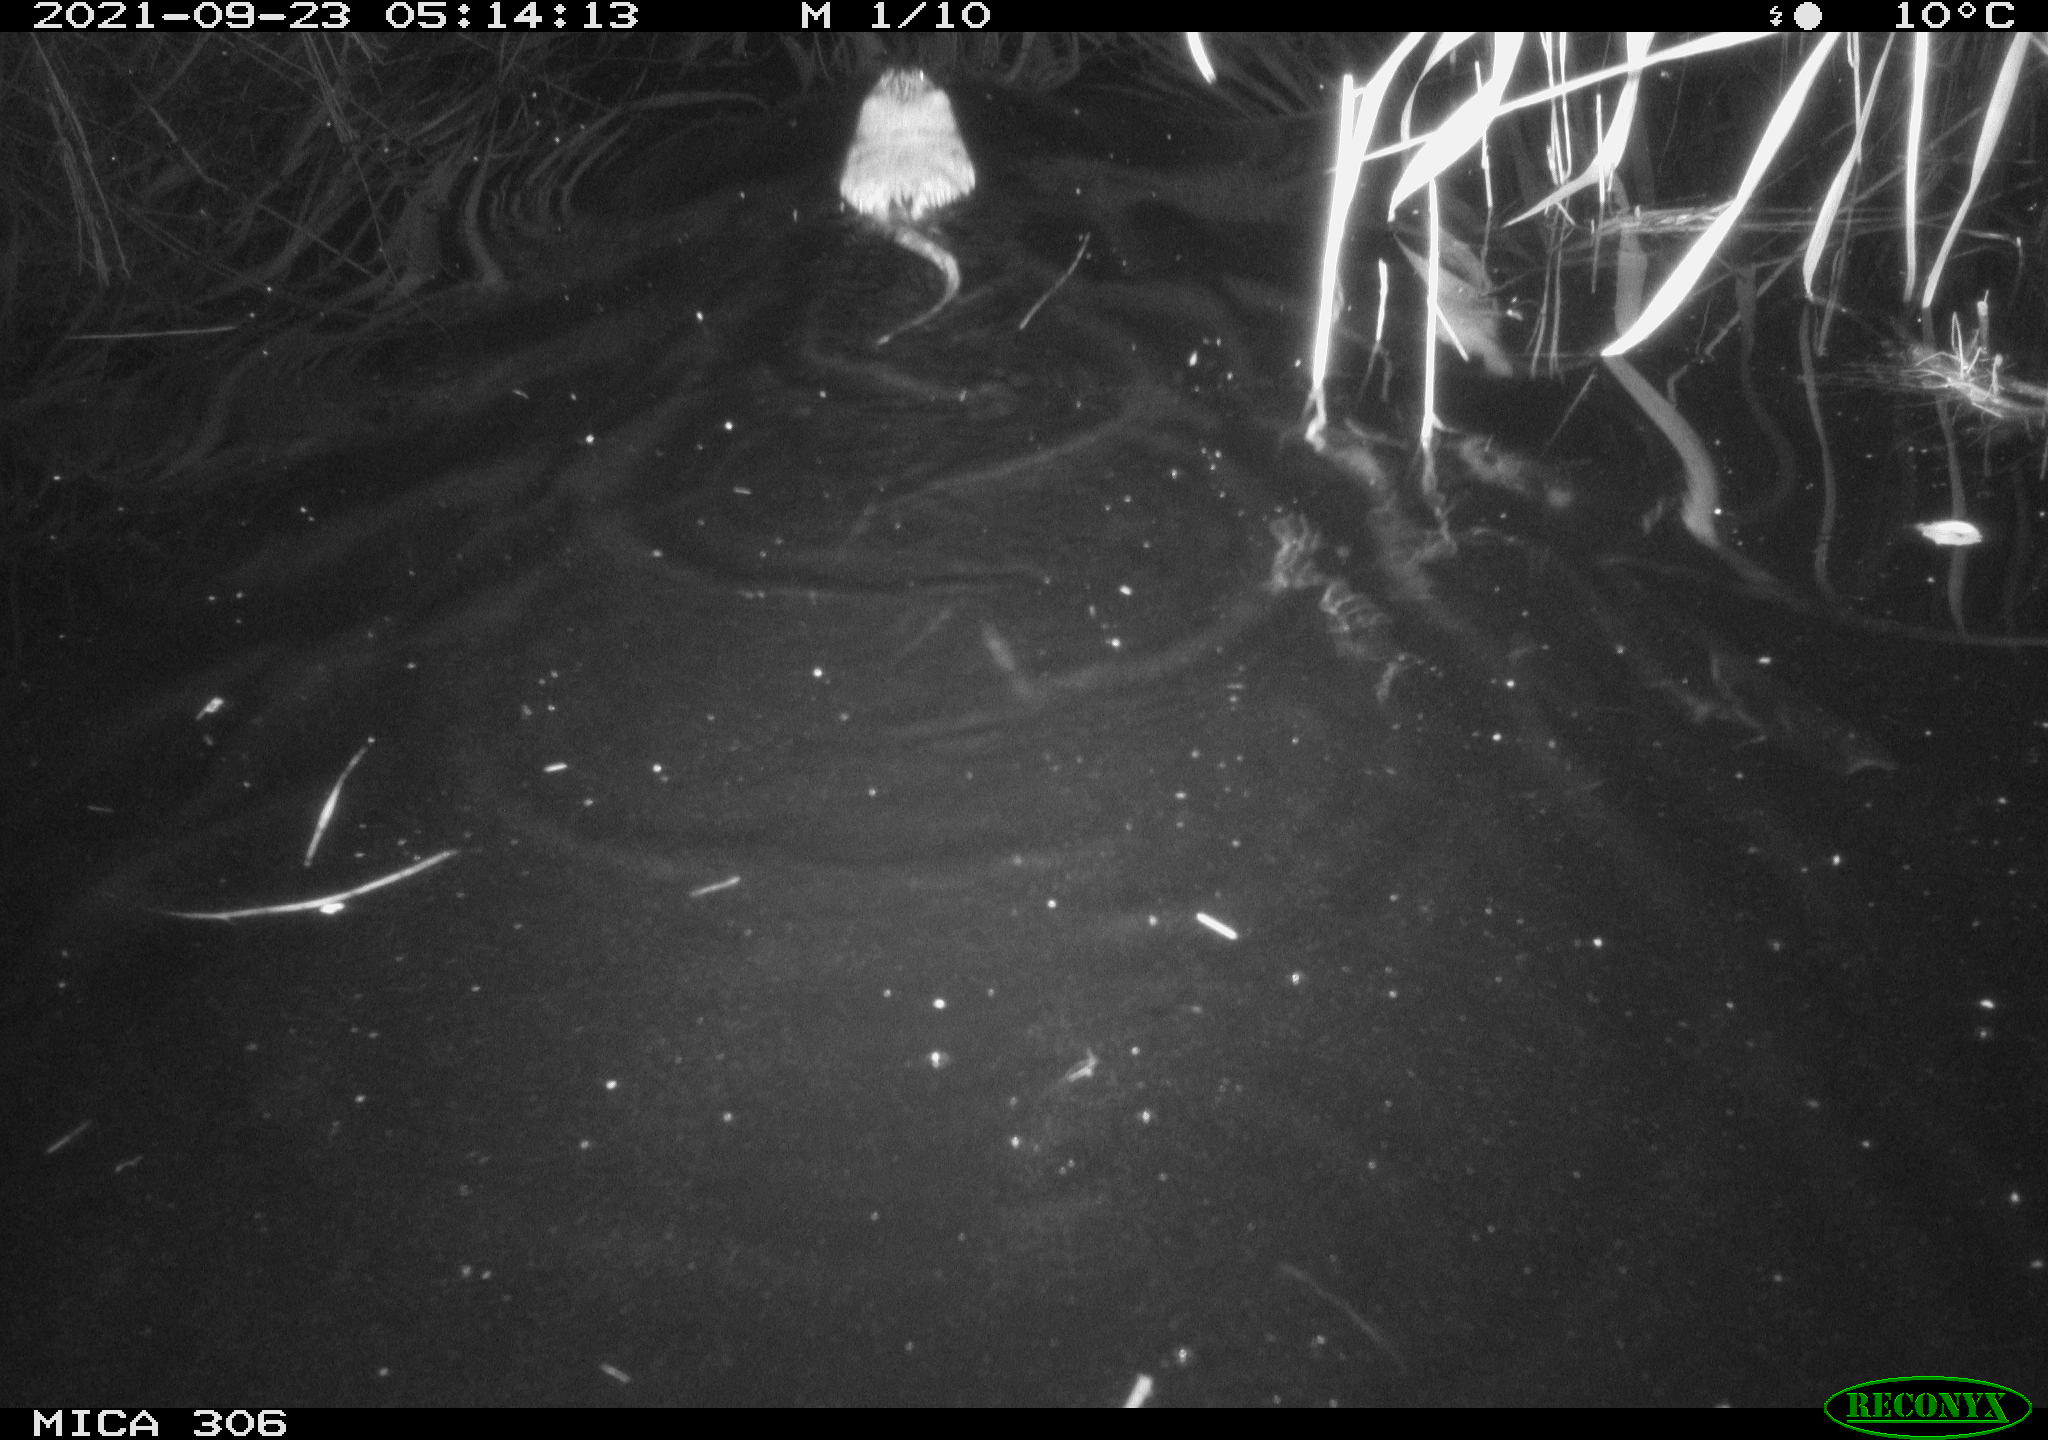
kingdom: Animalia
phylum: Chordata
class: Mammalia
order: Rodentia
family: Cricetidae
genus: Ondatra
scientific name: Ondatra zibethicus
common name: Muskrat
